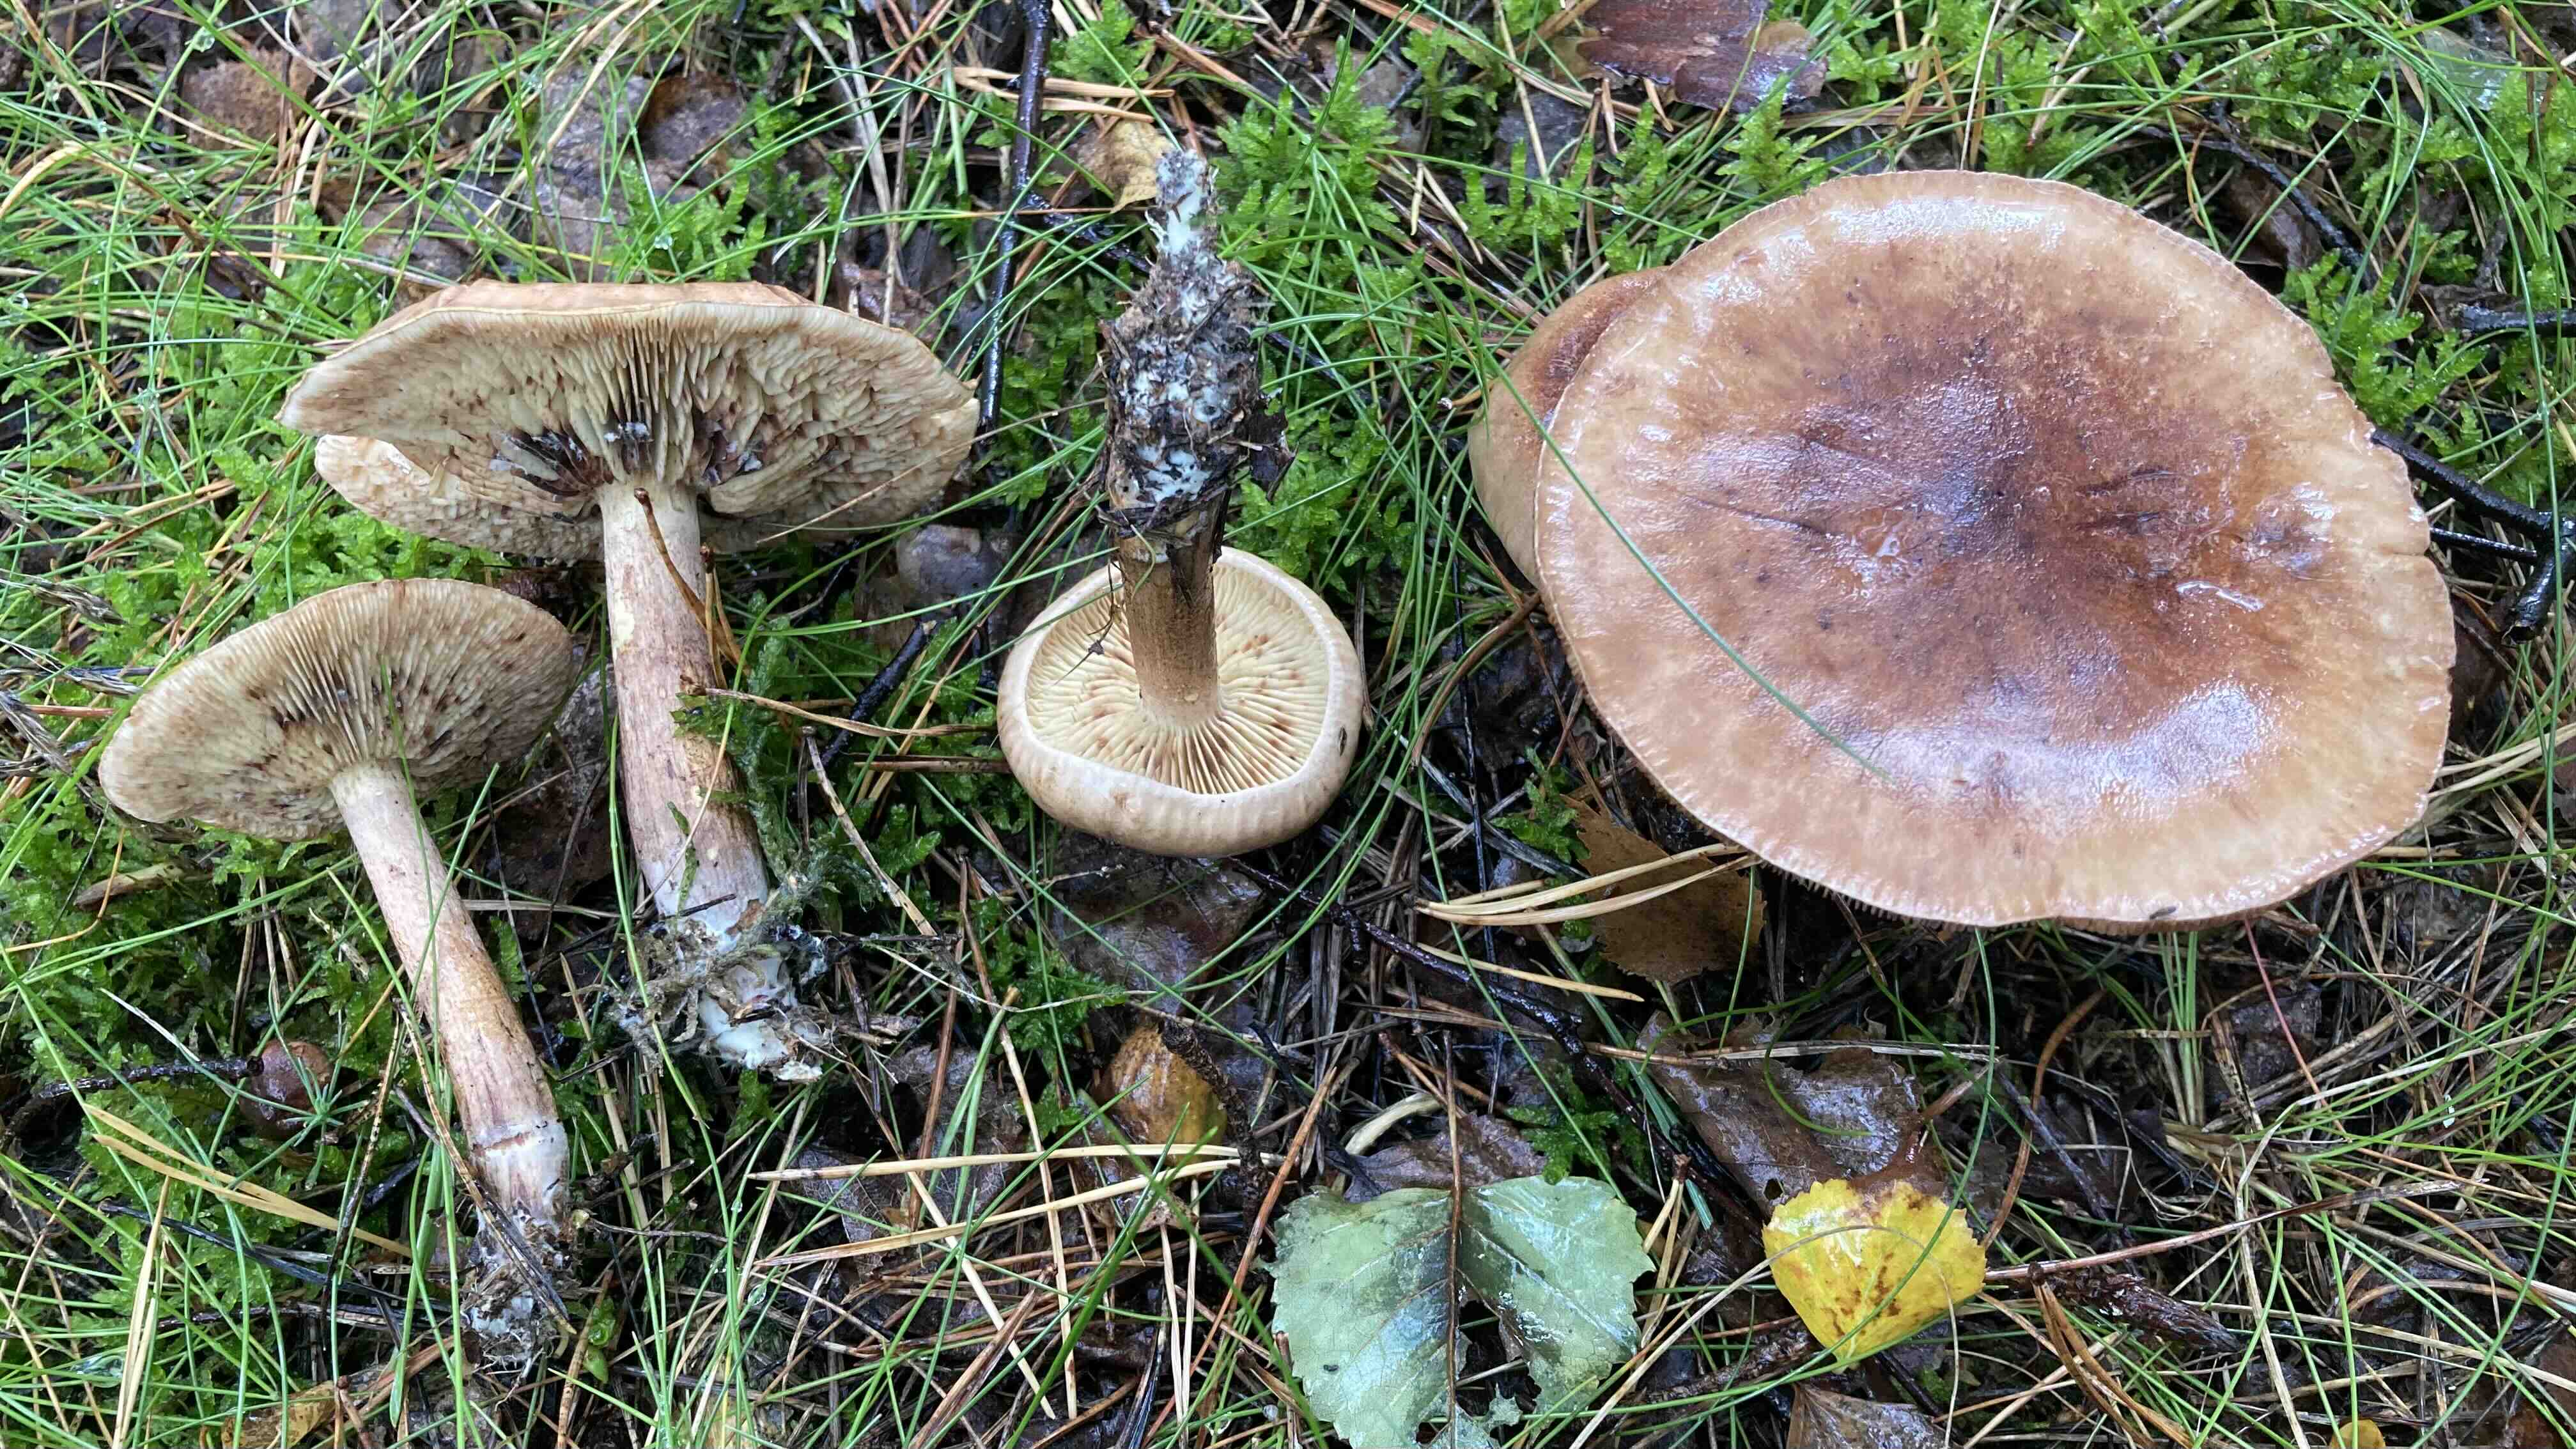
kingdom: Fungi
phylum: Basidiomycota
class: Agaricomycetes
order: Agaricales
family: Tricholomataceae
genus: Tricholoma
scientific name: Tricholoma fulvum
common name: birke-ridderhat
